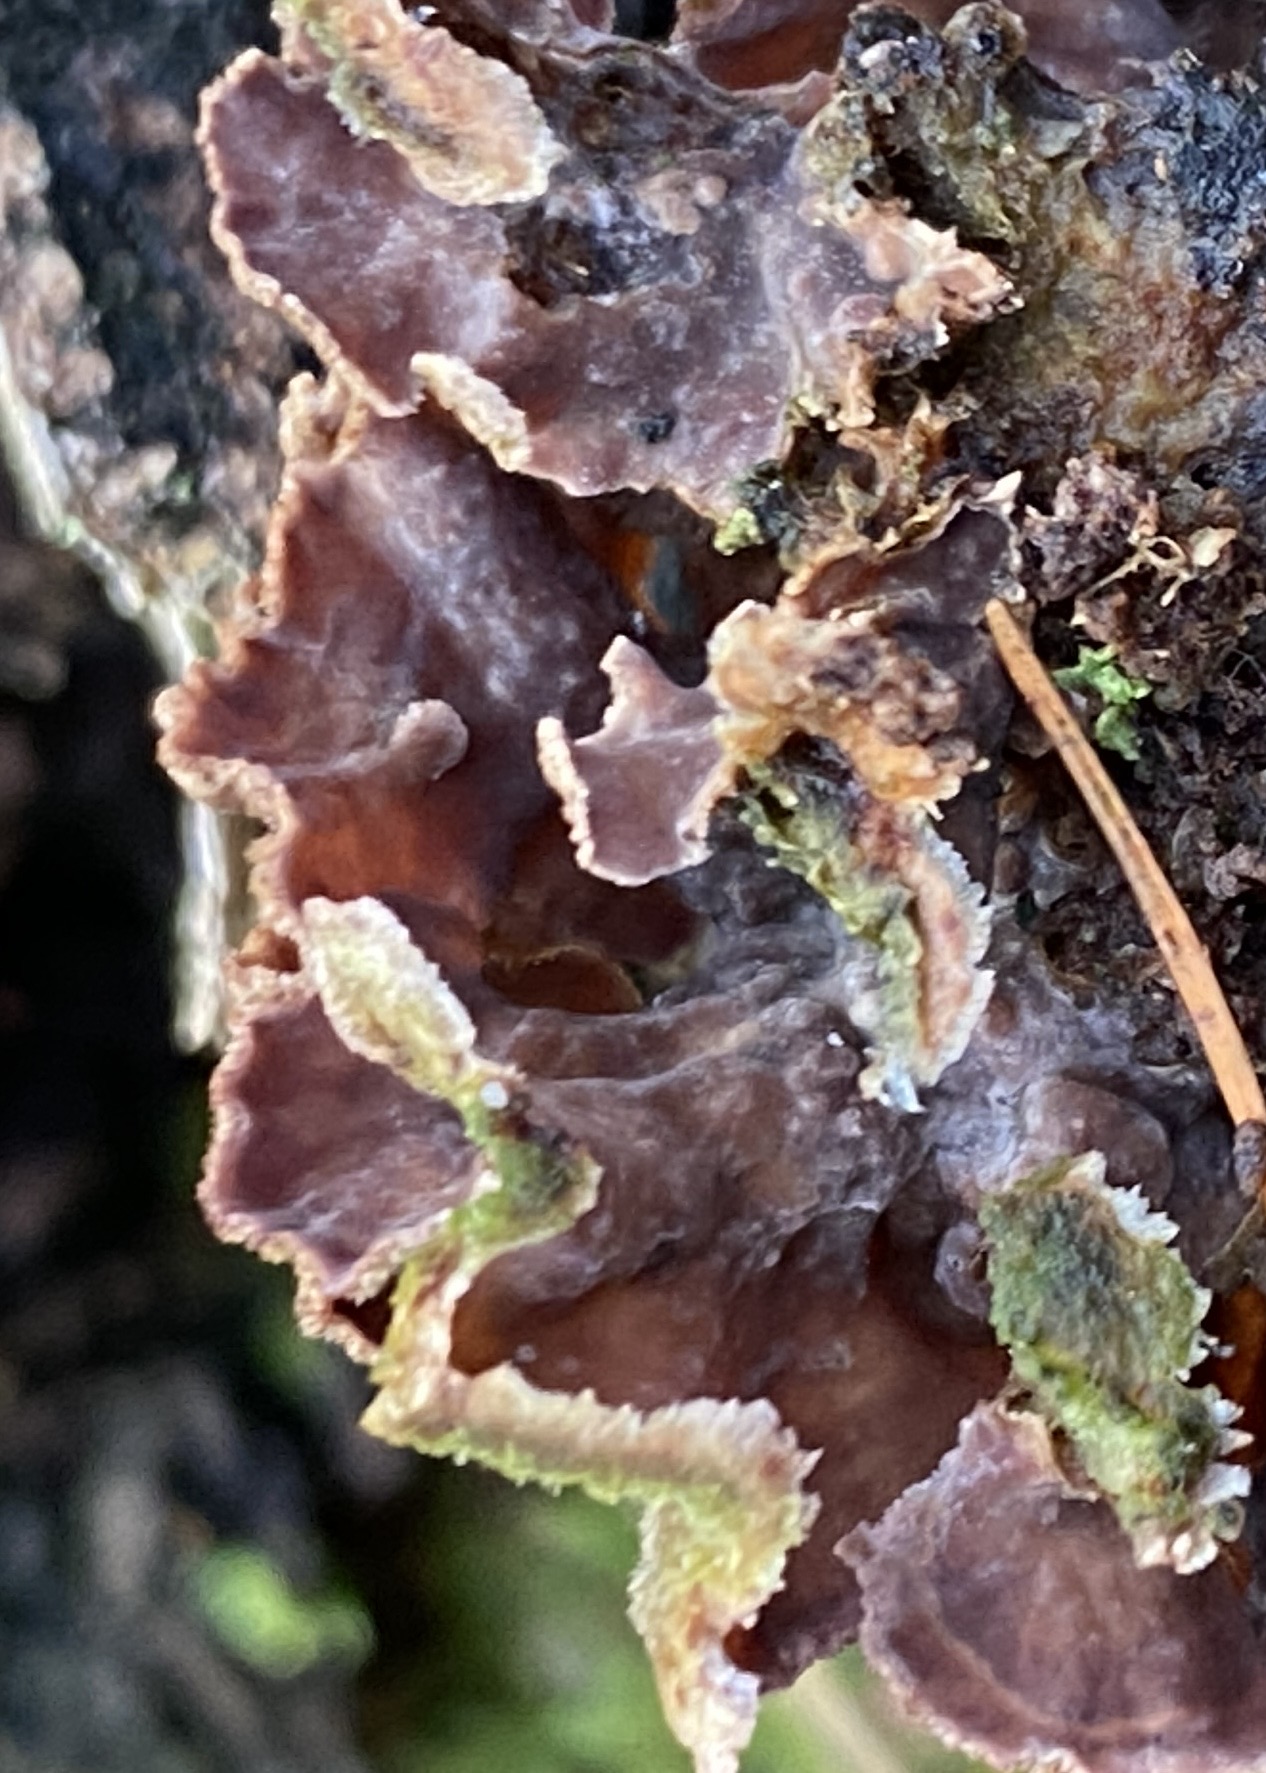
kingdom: Fungi
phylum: Basidiomycota
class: Agaricomycetes
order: Agaricales
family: Cyphellaceae
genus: Chondrostereum
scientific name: Chondrostereum purpureum
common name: purpurlædersvamp
